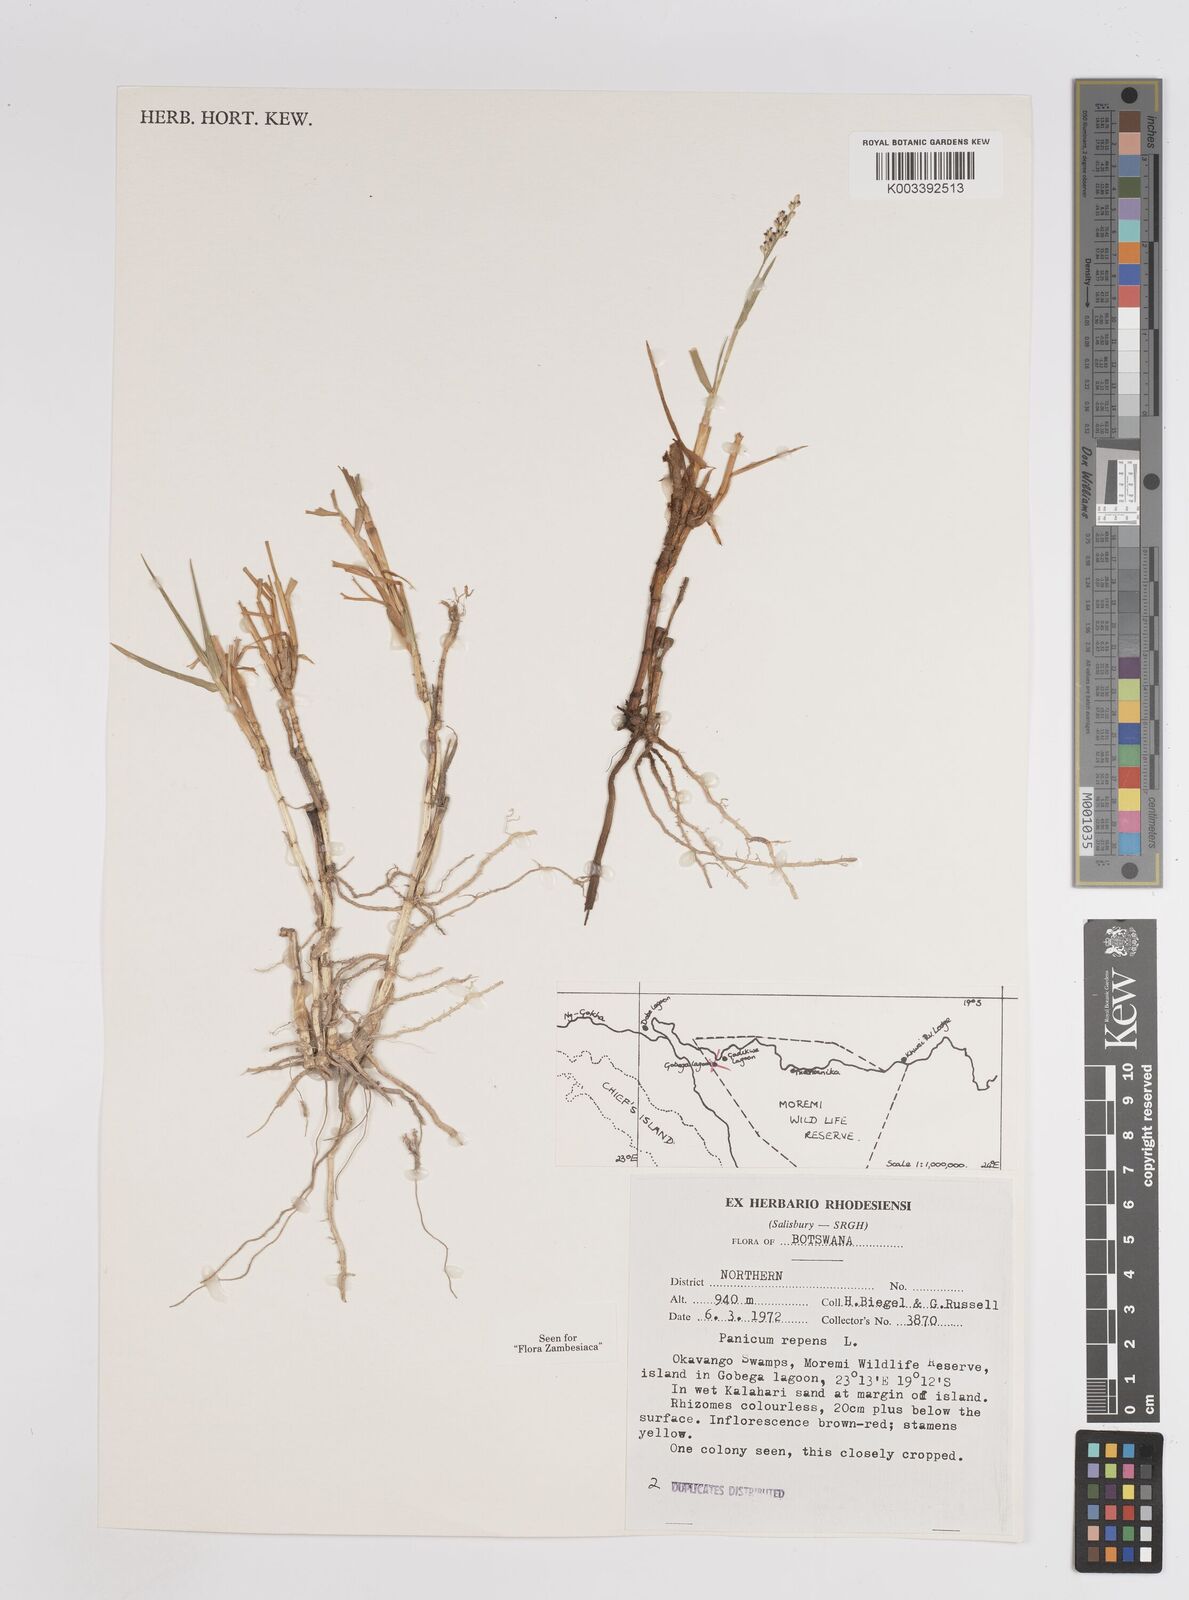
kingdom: Plantae
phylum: Tracheophyta
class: Liliopsida
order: Poales
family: Poaceae
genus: Panicum
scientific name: Panicum repens
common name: Torpedo grass
